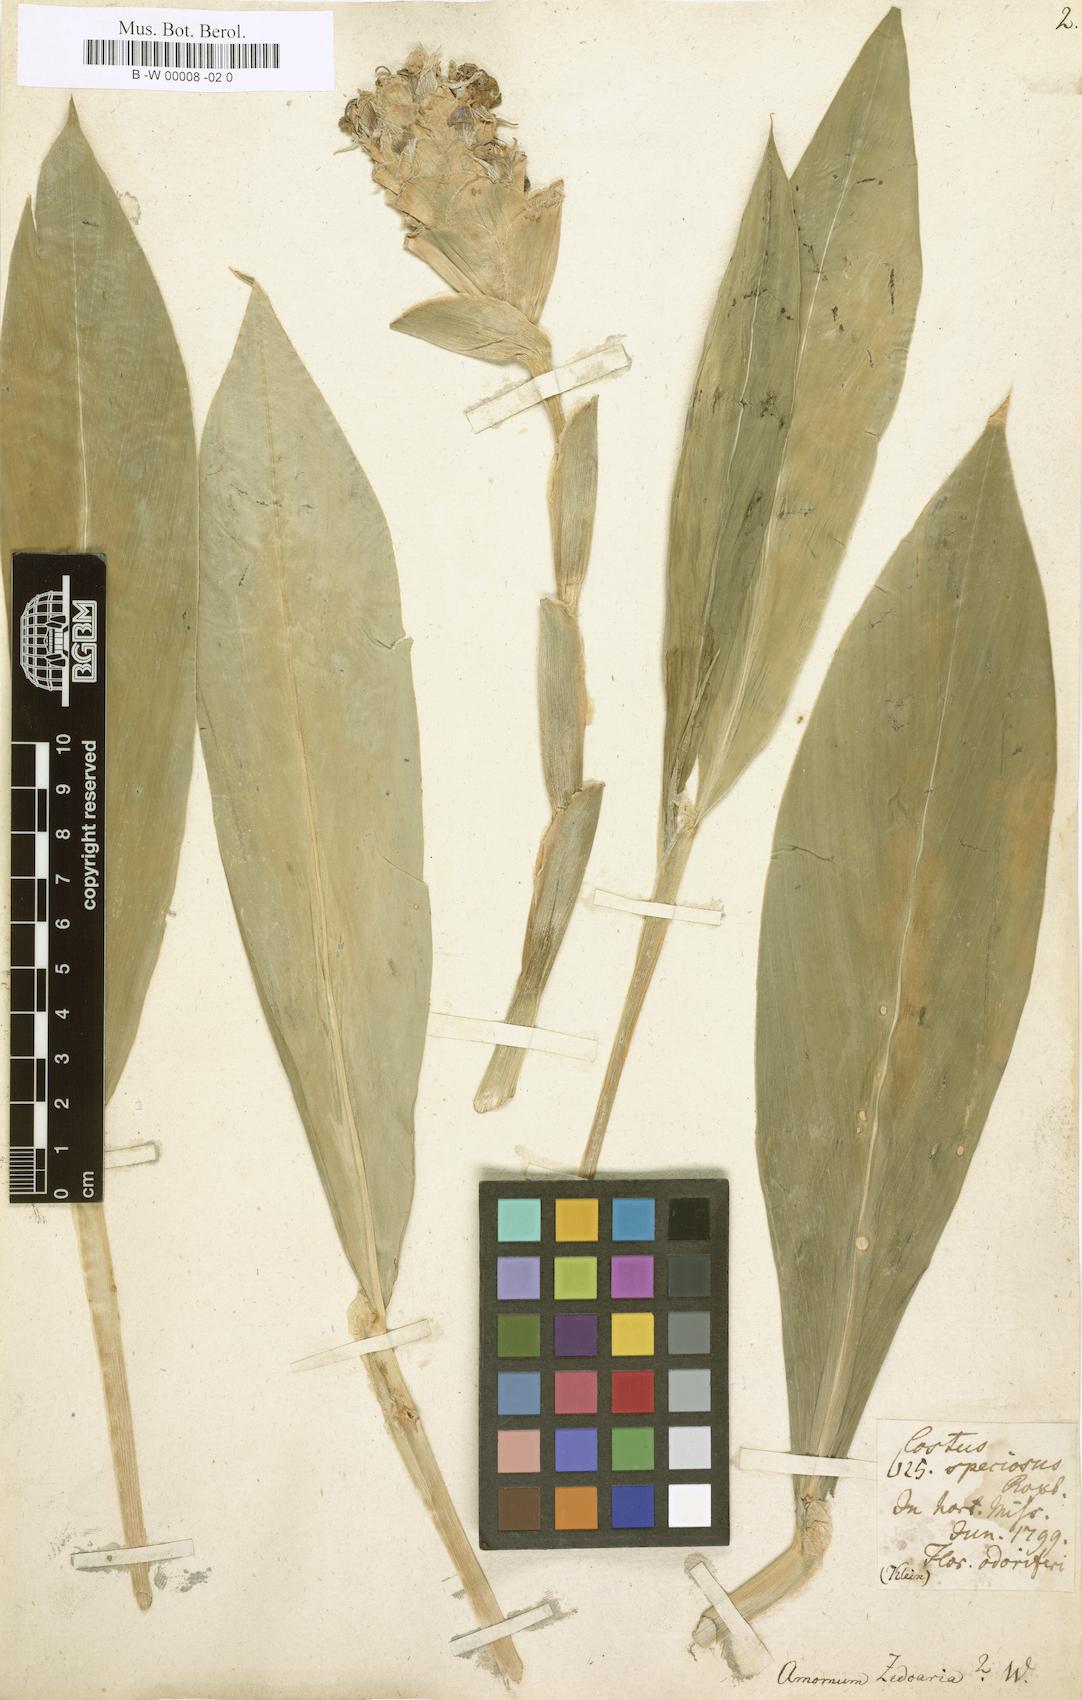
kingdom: Plantae
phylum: Tracheophyta
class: Liliopsida
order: Zingiberales
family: Zingiberaceae
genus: Curcuma
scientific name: Curcuma zedoaria
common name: Zedoary
